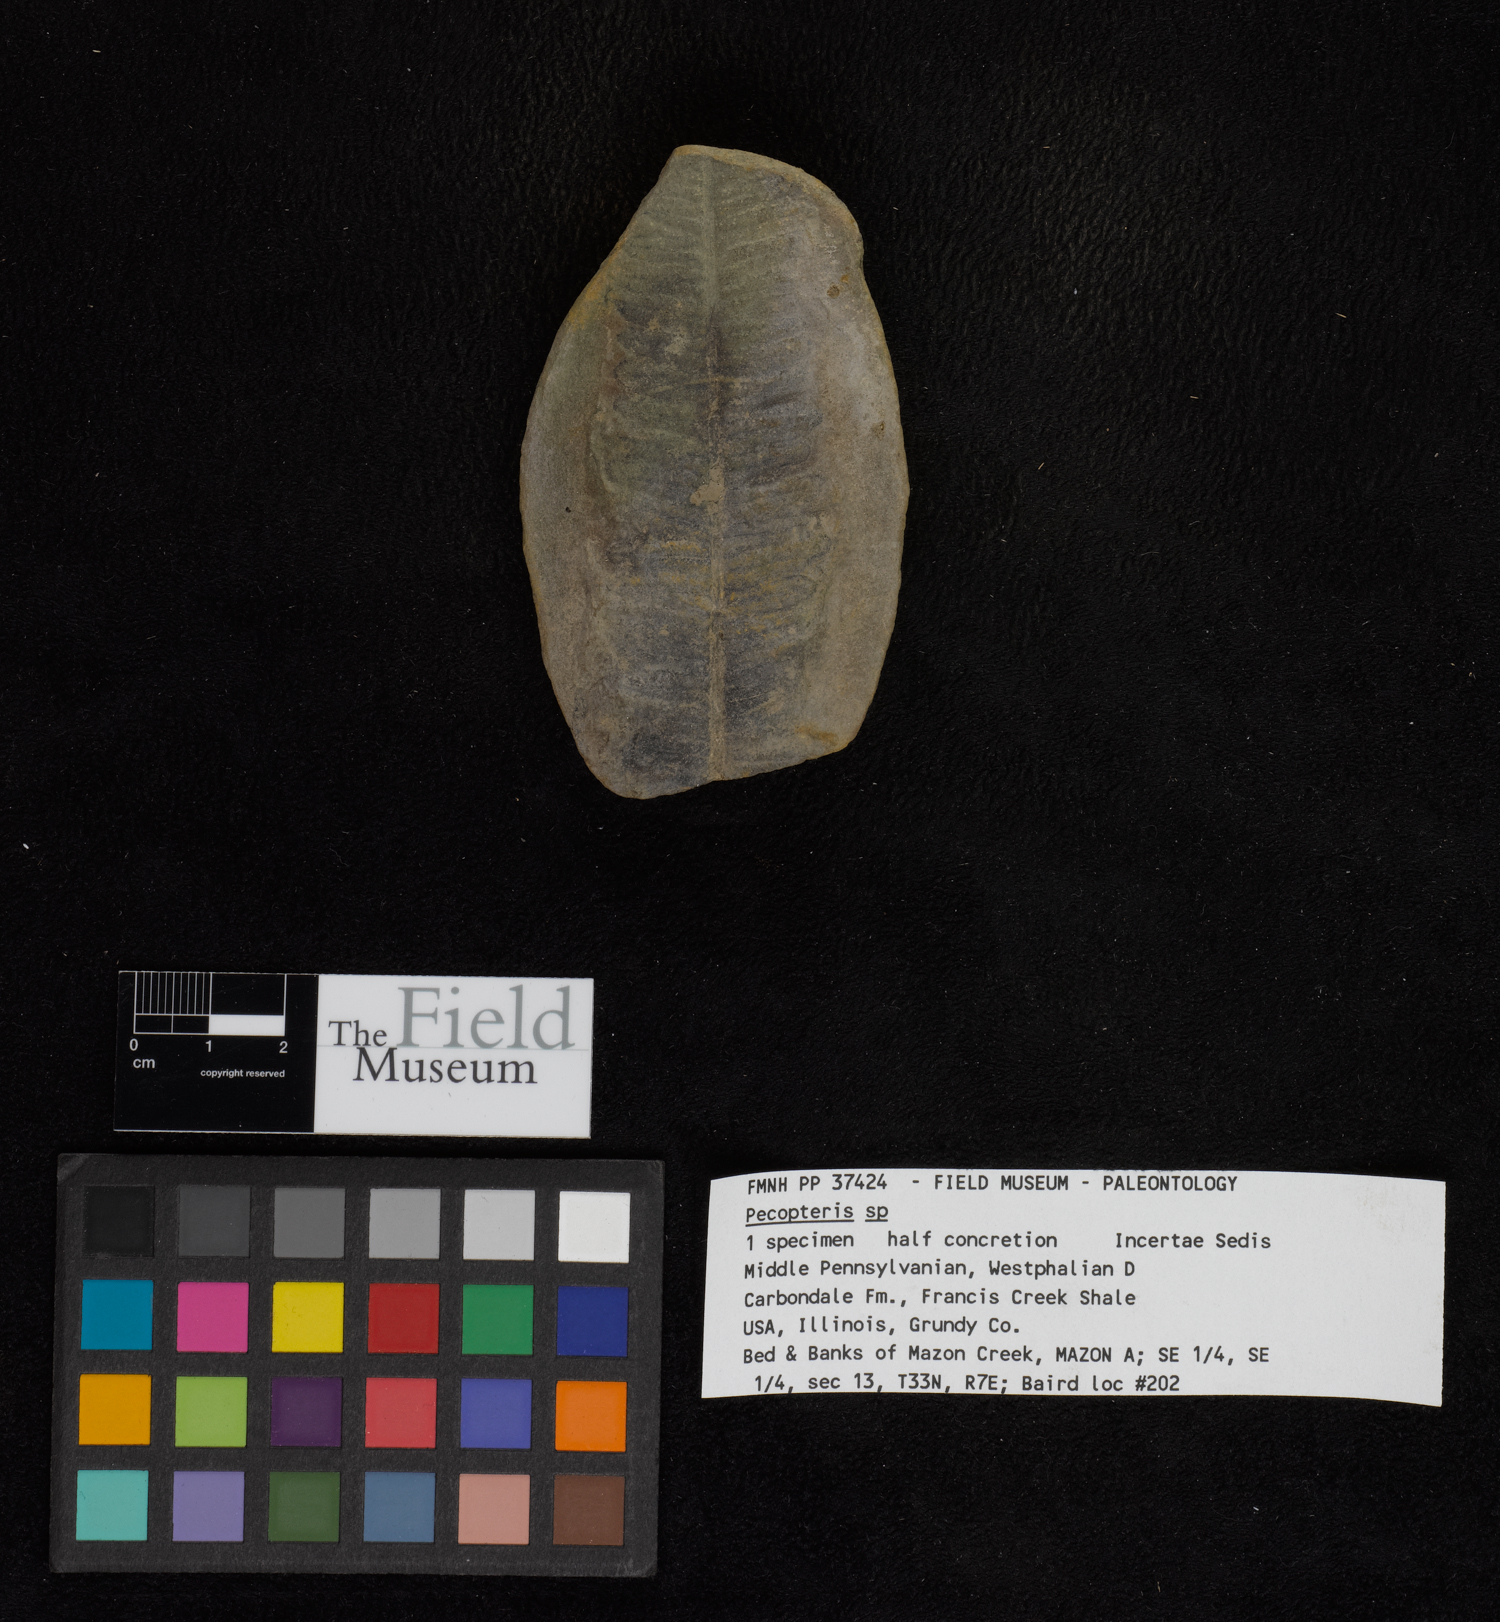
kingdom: Plantae
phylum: Tracheophyta
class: Polypodiopsida
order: Marattiales
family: Asterothecaceae
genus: Pecopteris
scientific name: Pecopteris
